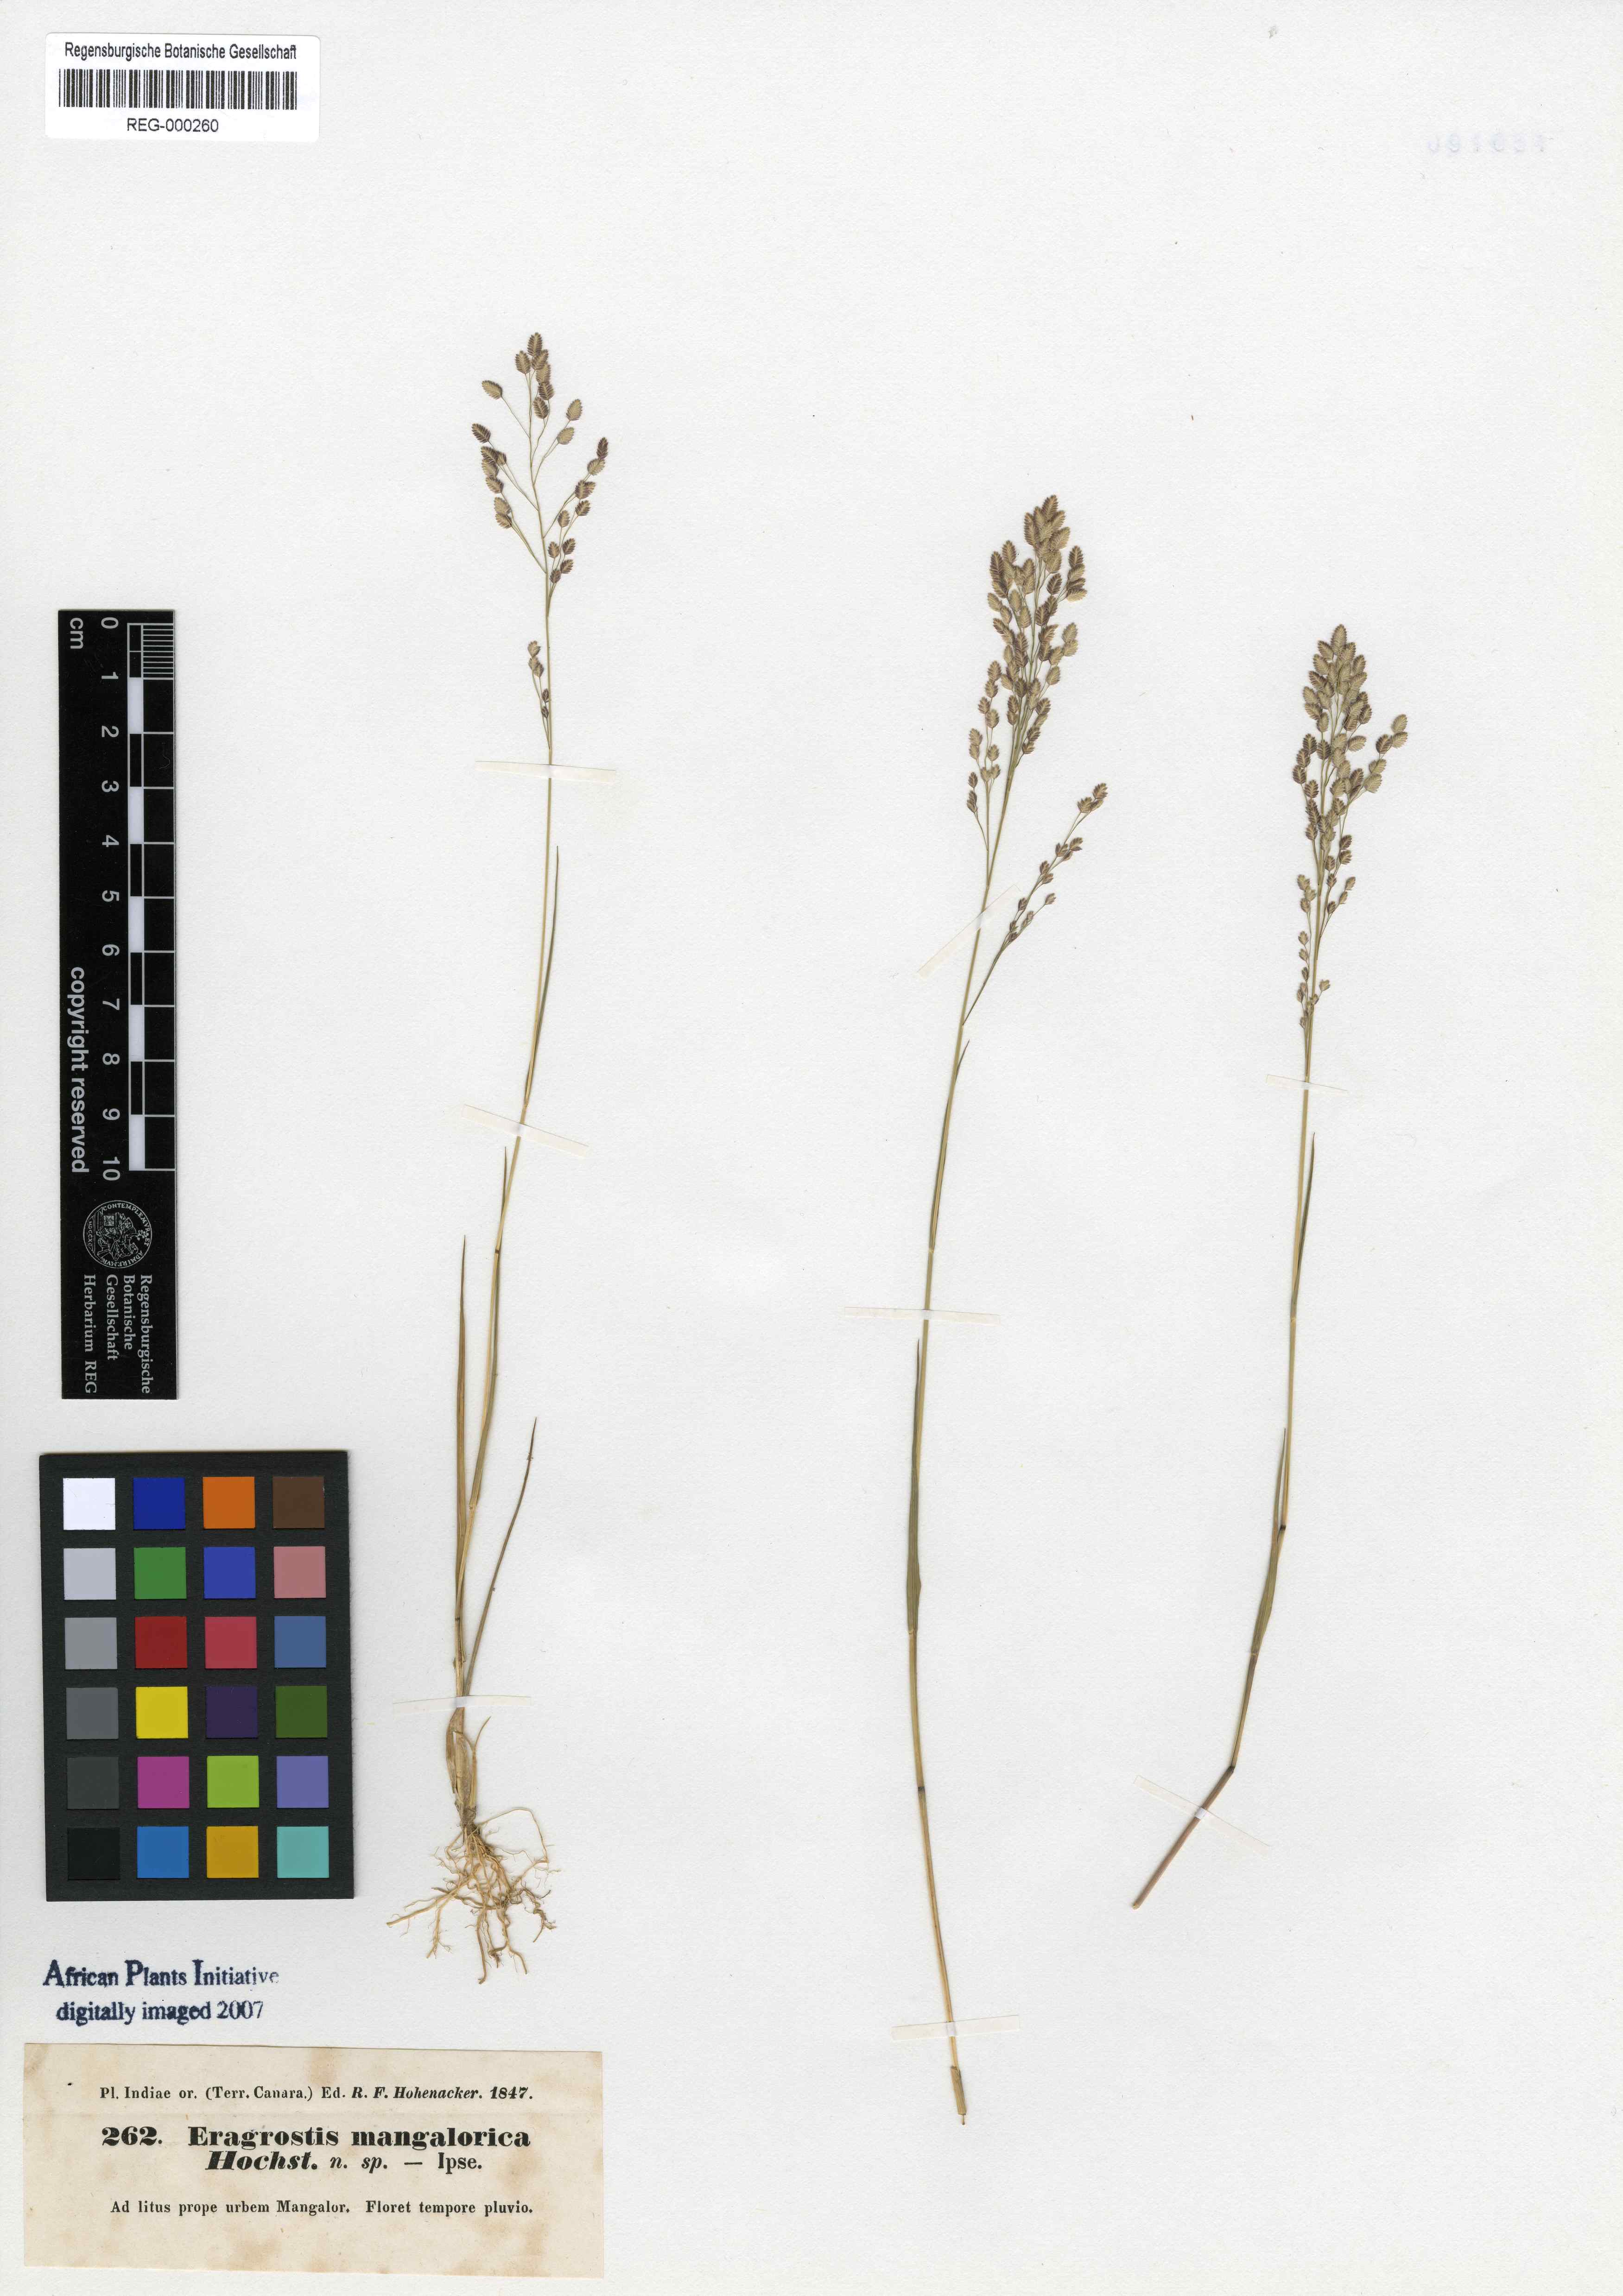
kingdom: Plantae
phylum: Tracheophyta
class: Liliopsida
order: Poales
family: Poaceae
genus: Eragrostis
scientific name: Eragrostis viscosa
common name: Sticky love grass
